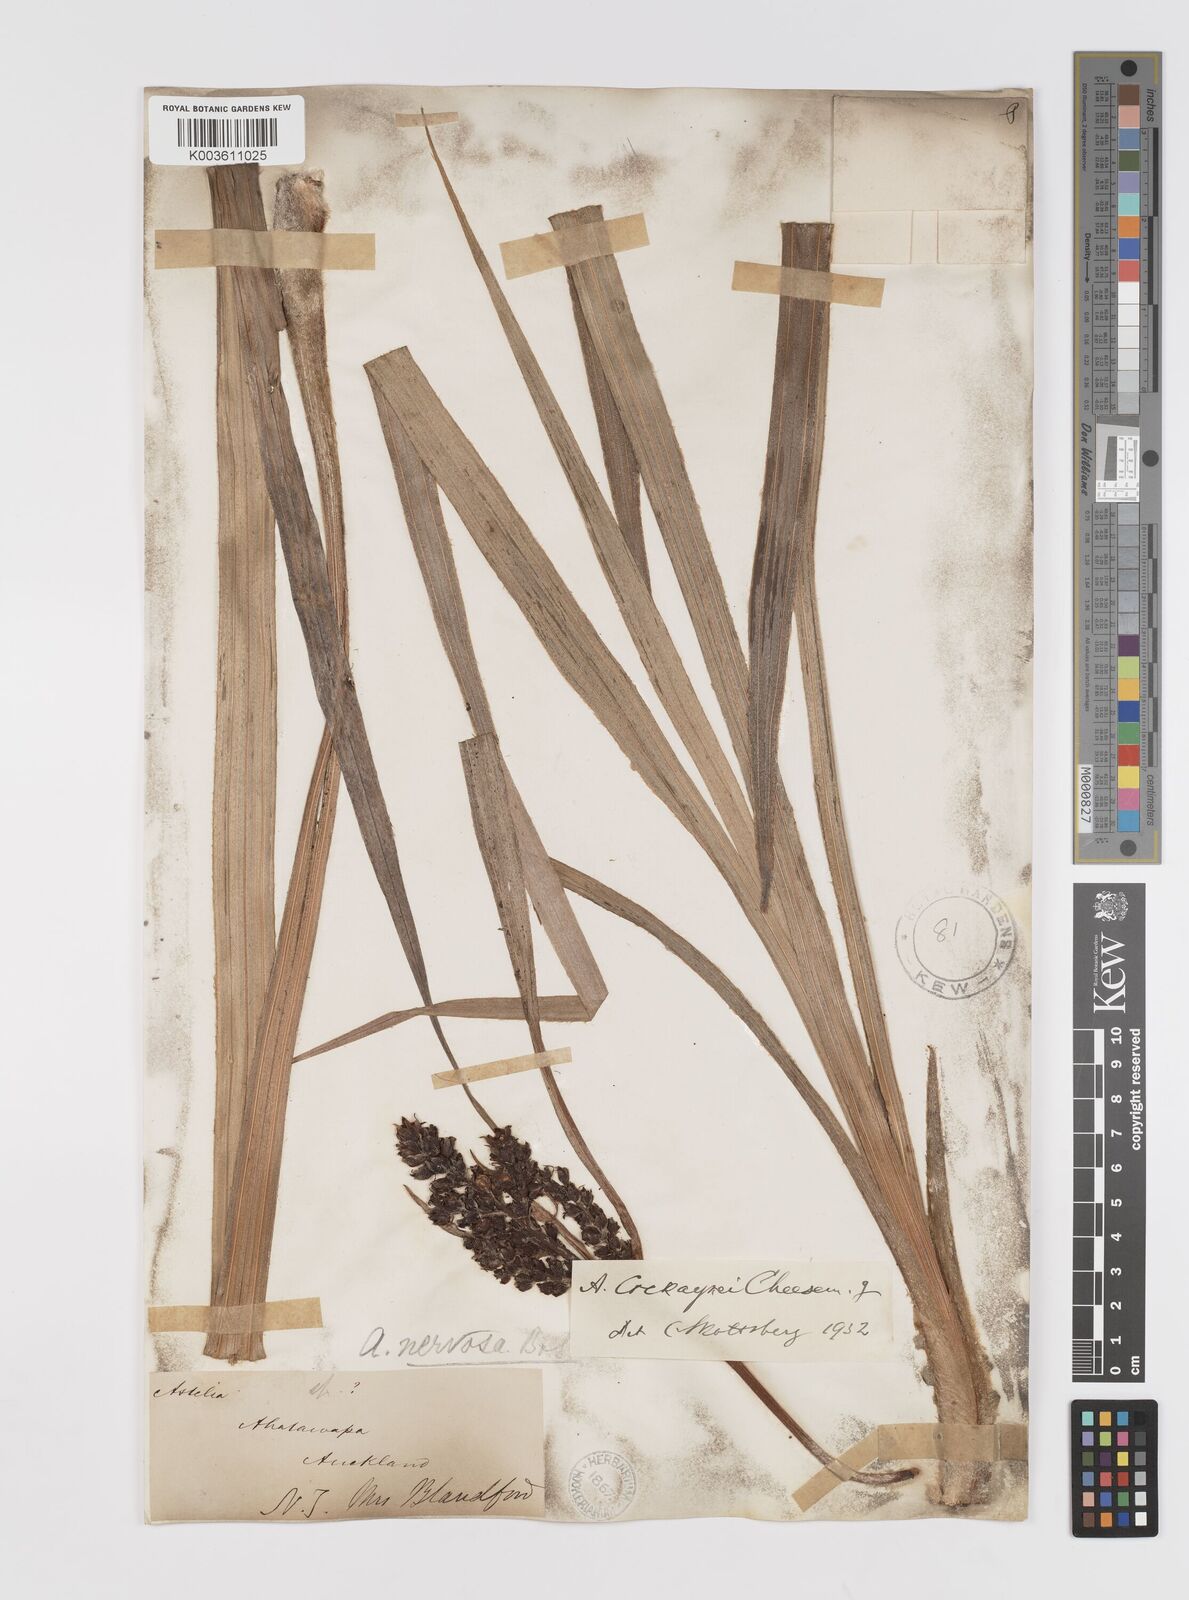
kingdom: Plantae
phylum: Tracheophyta
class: Liliopsida
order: Asparagales
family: Asteliaceae
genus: Astelia
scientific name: Astelia nervosa
